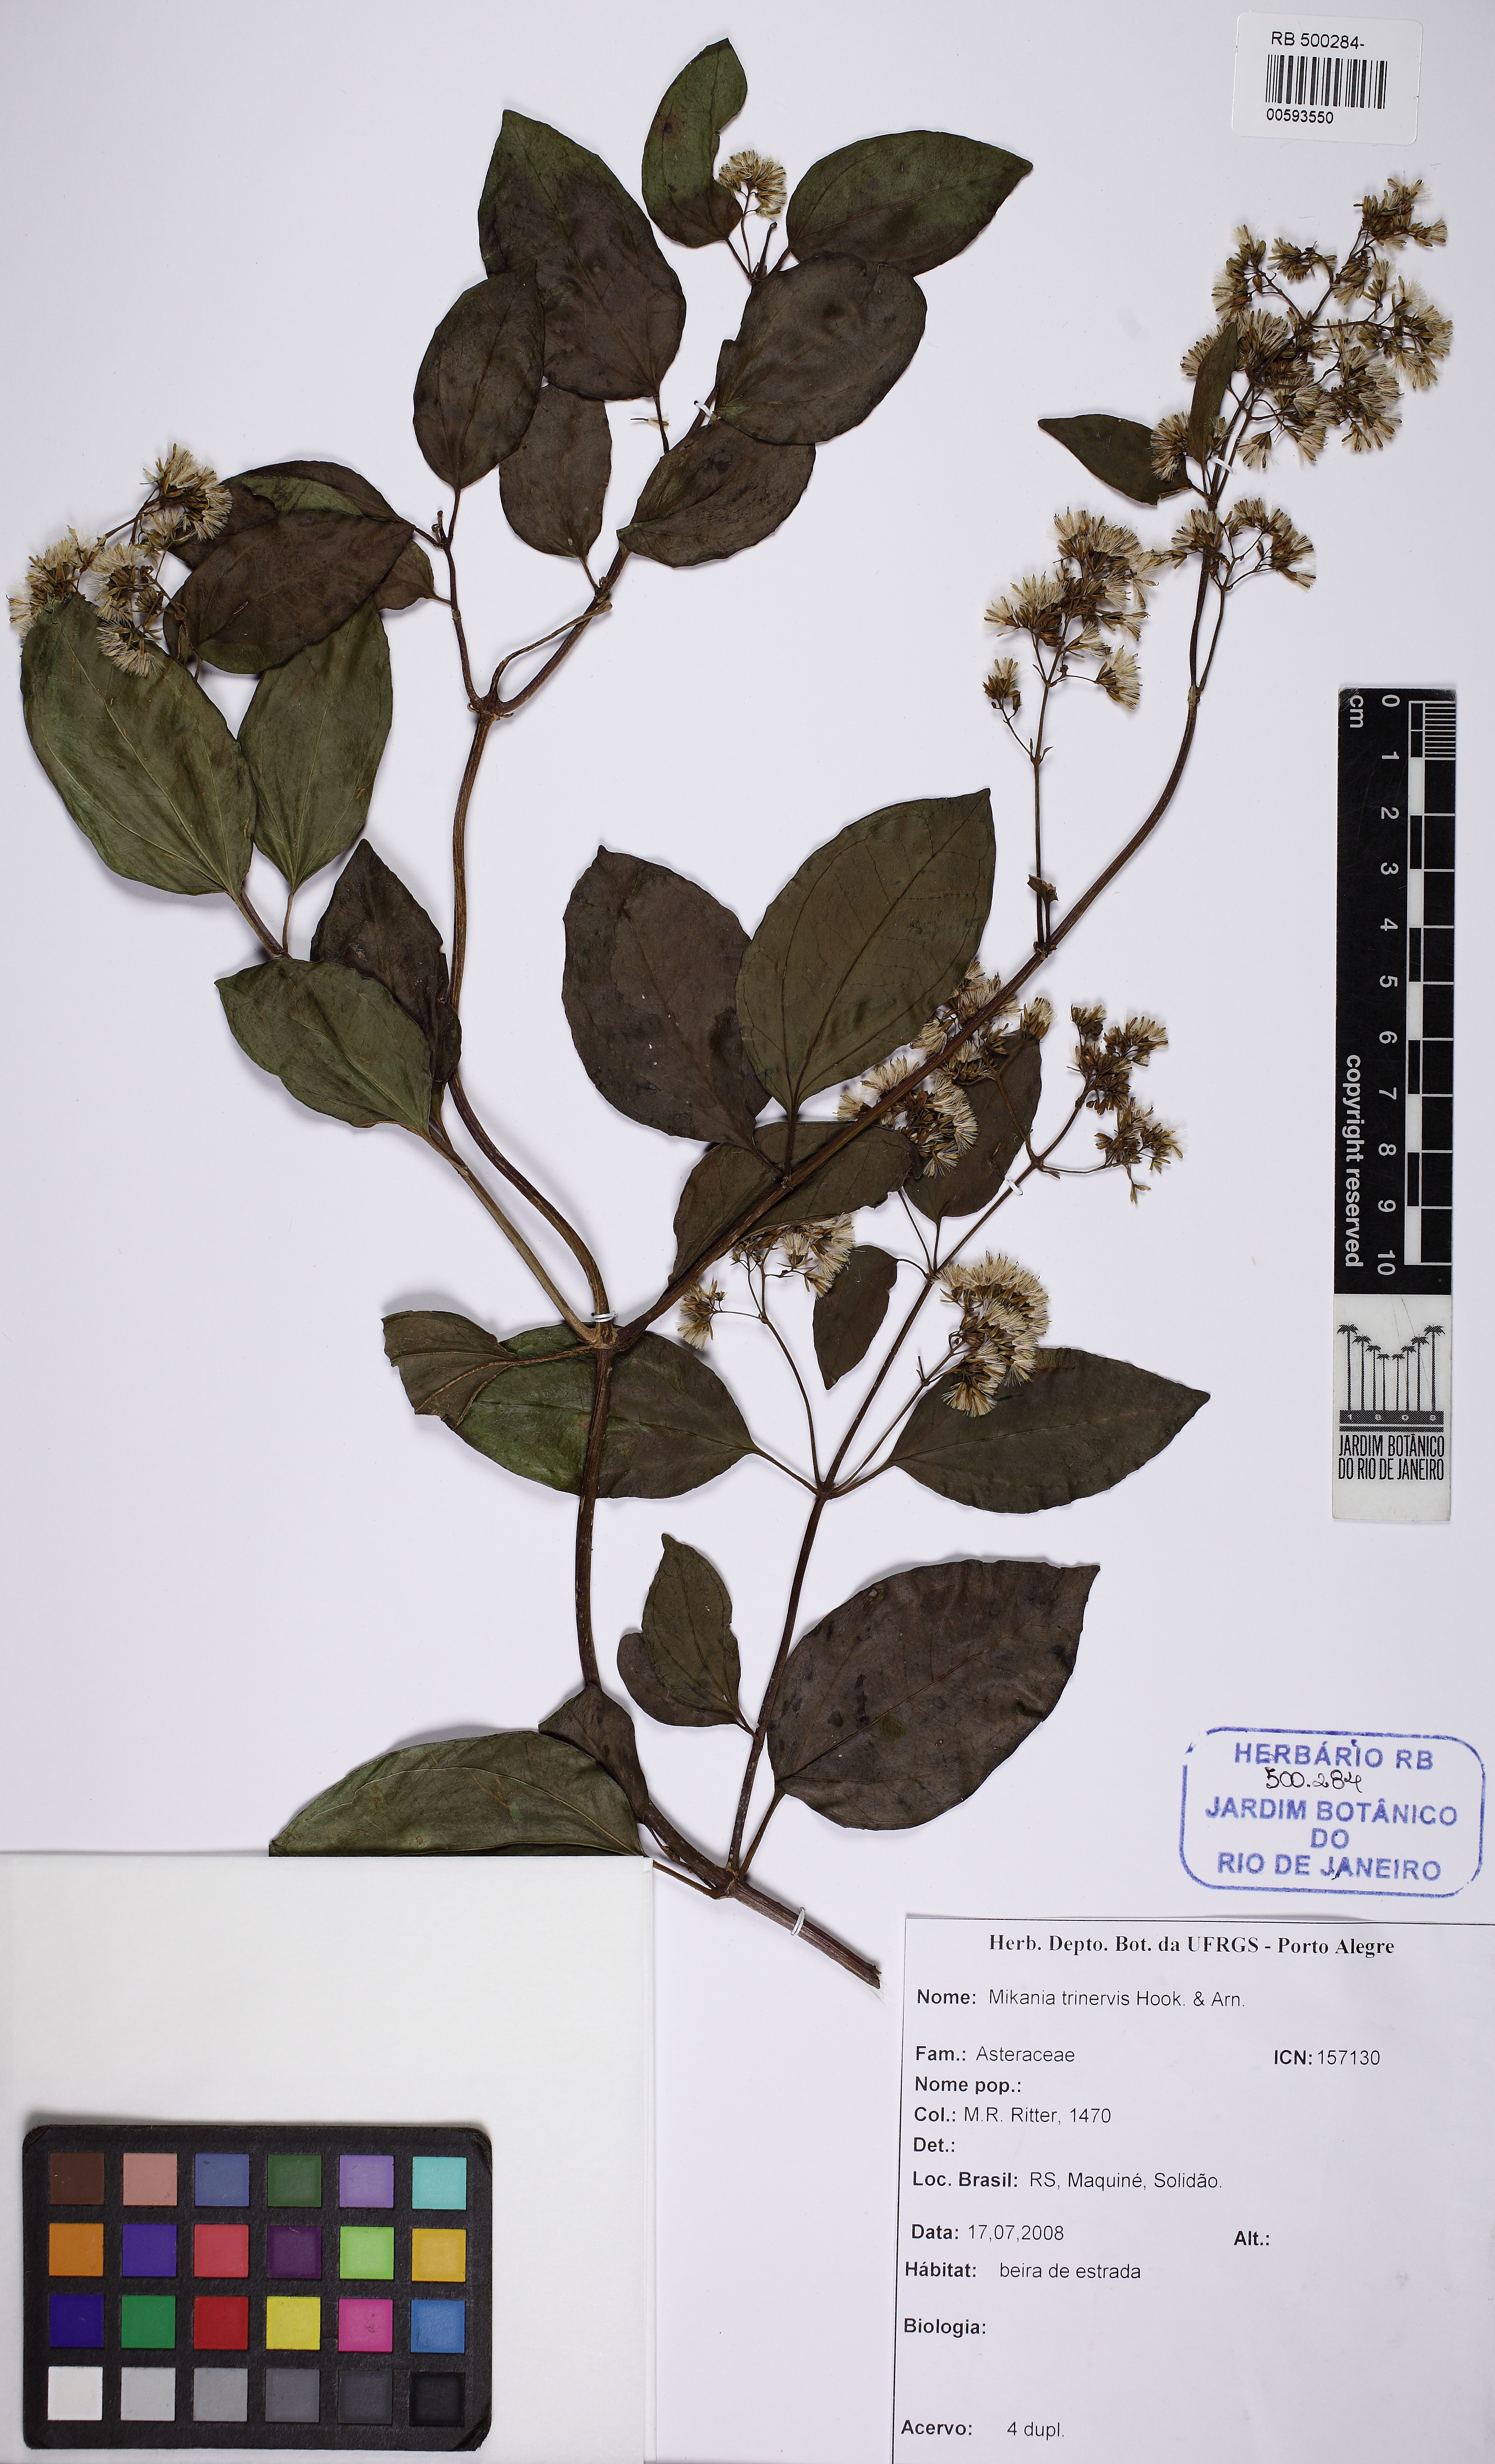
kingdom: Plantae
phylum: Tracheophyta
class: Magnoliopsida
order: Asterales
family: Asteraceae
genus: Mikania
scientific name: Mikania trinervis
